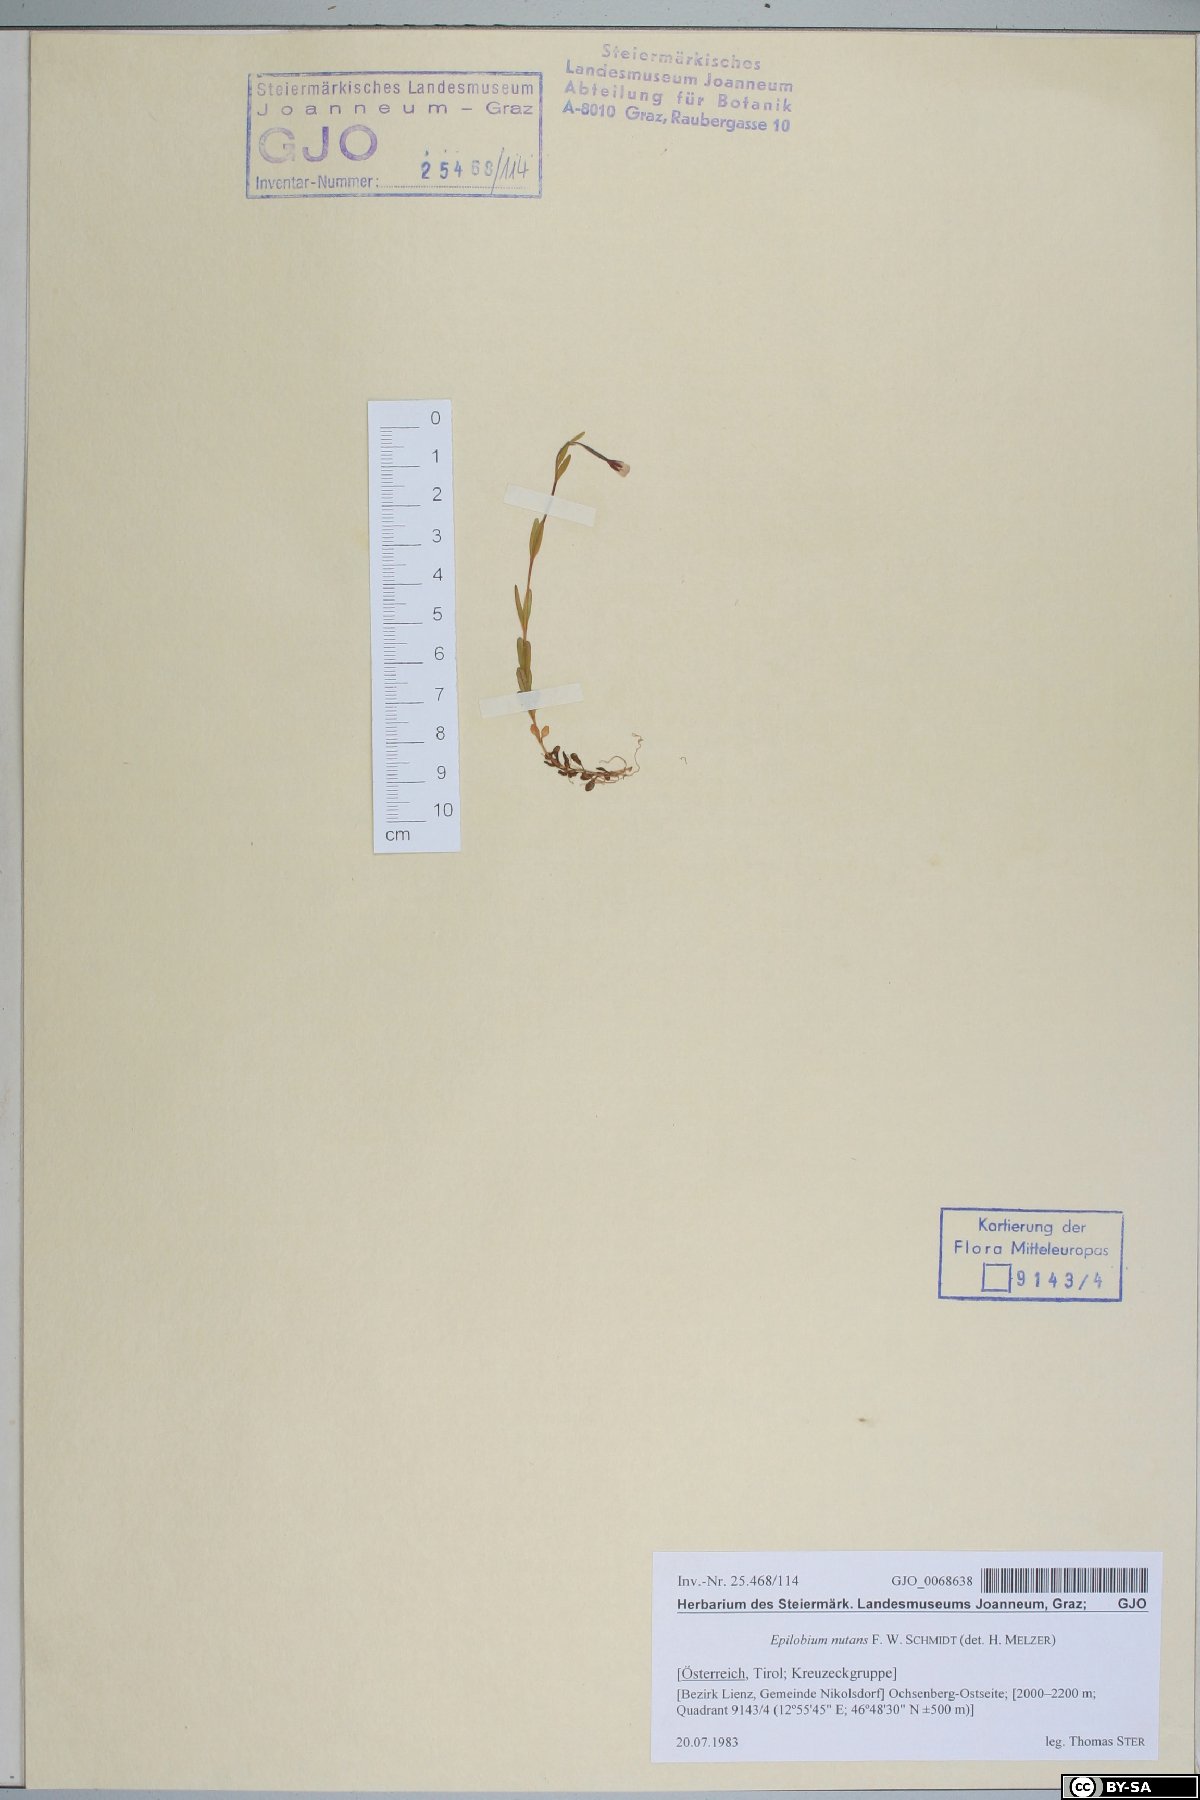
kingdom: Plantae
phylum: Tracheophyta
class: Magnoliopsida
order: Myrtales
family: Onagraceae
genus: Epilobium
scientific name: Epilobium nutans
